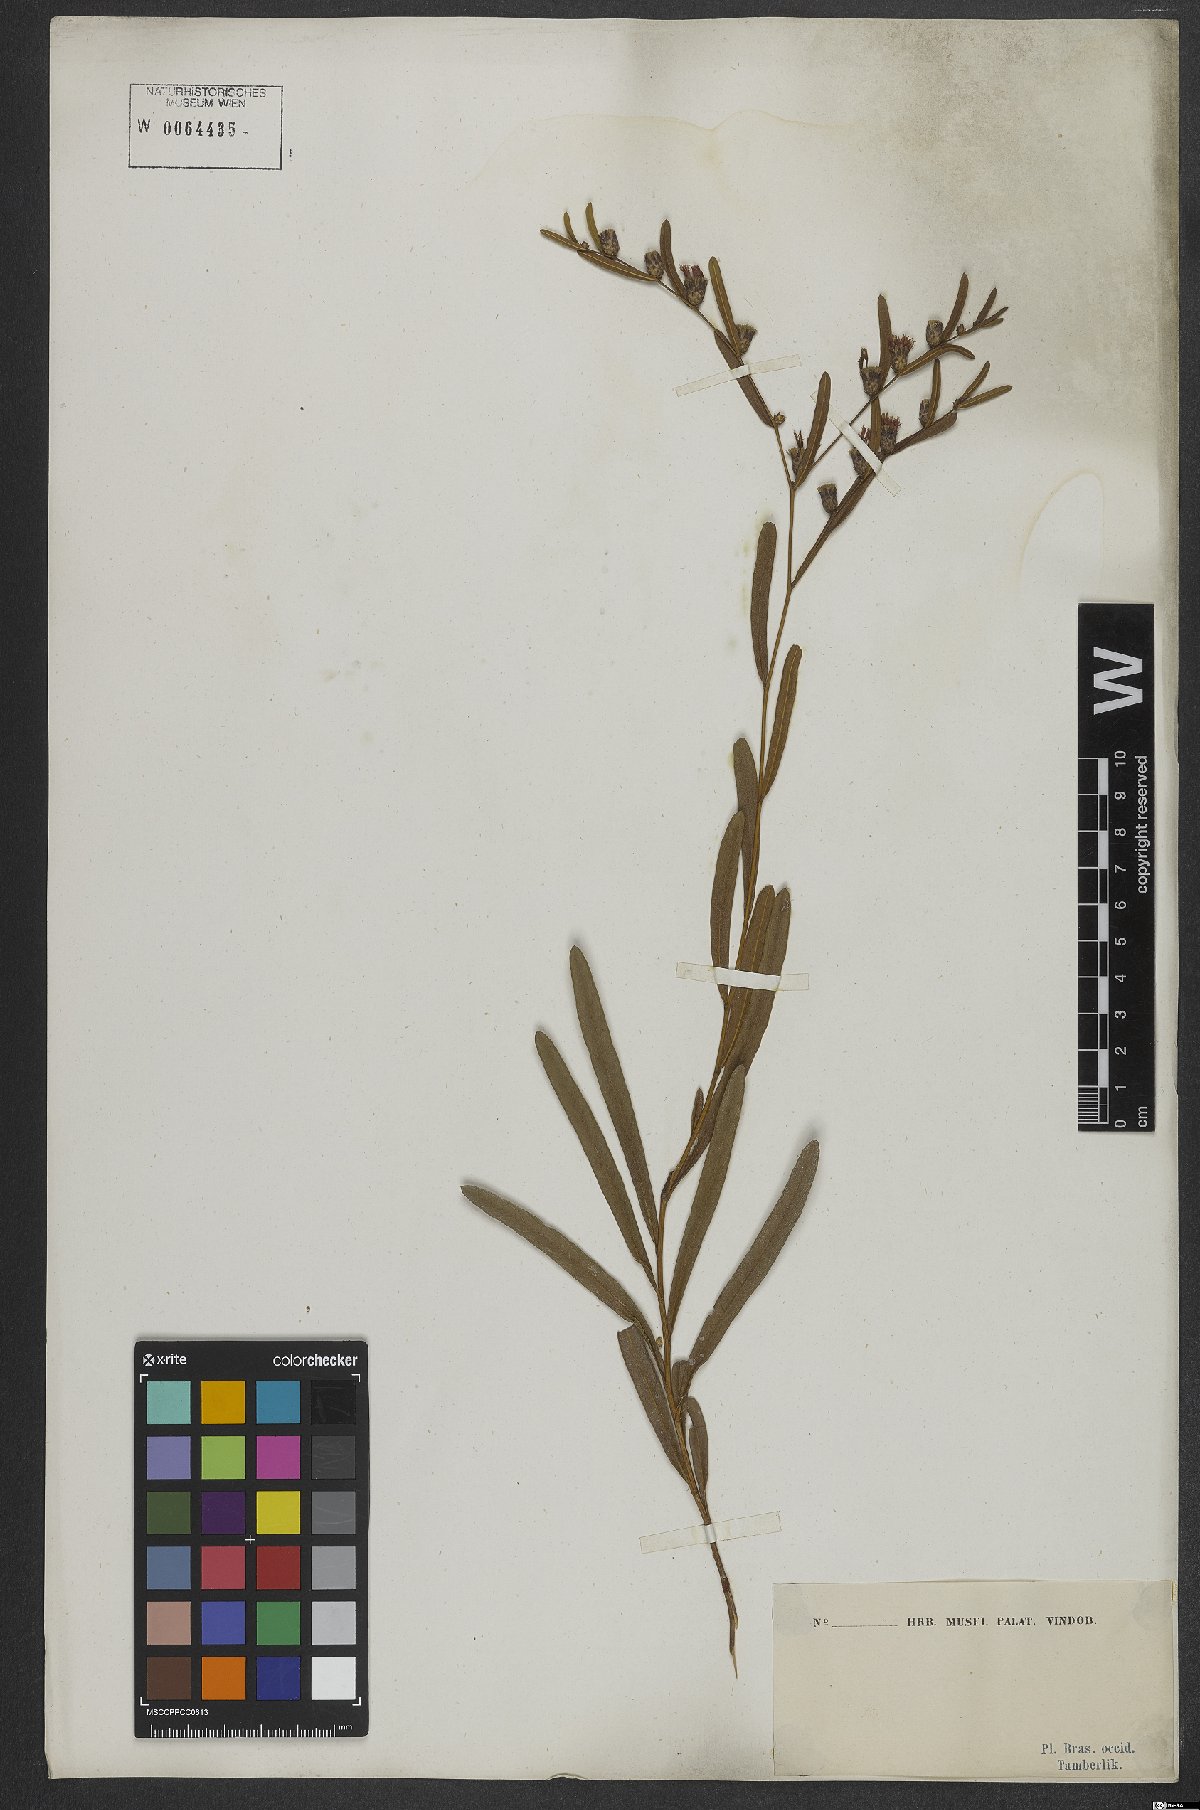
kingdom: Plantae
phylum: Tracheophyta
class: Magnoliopsida
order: Asterales
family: Asteraceae
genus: Lessingianthus
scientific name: Lessingianthus hoveaefolius
